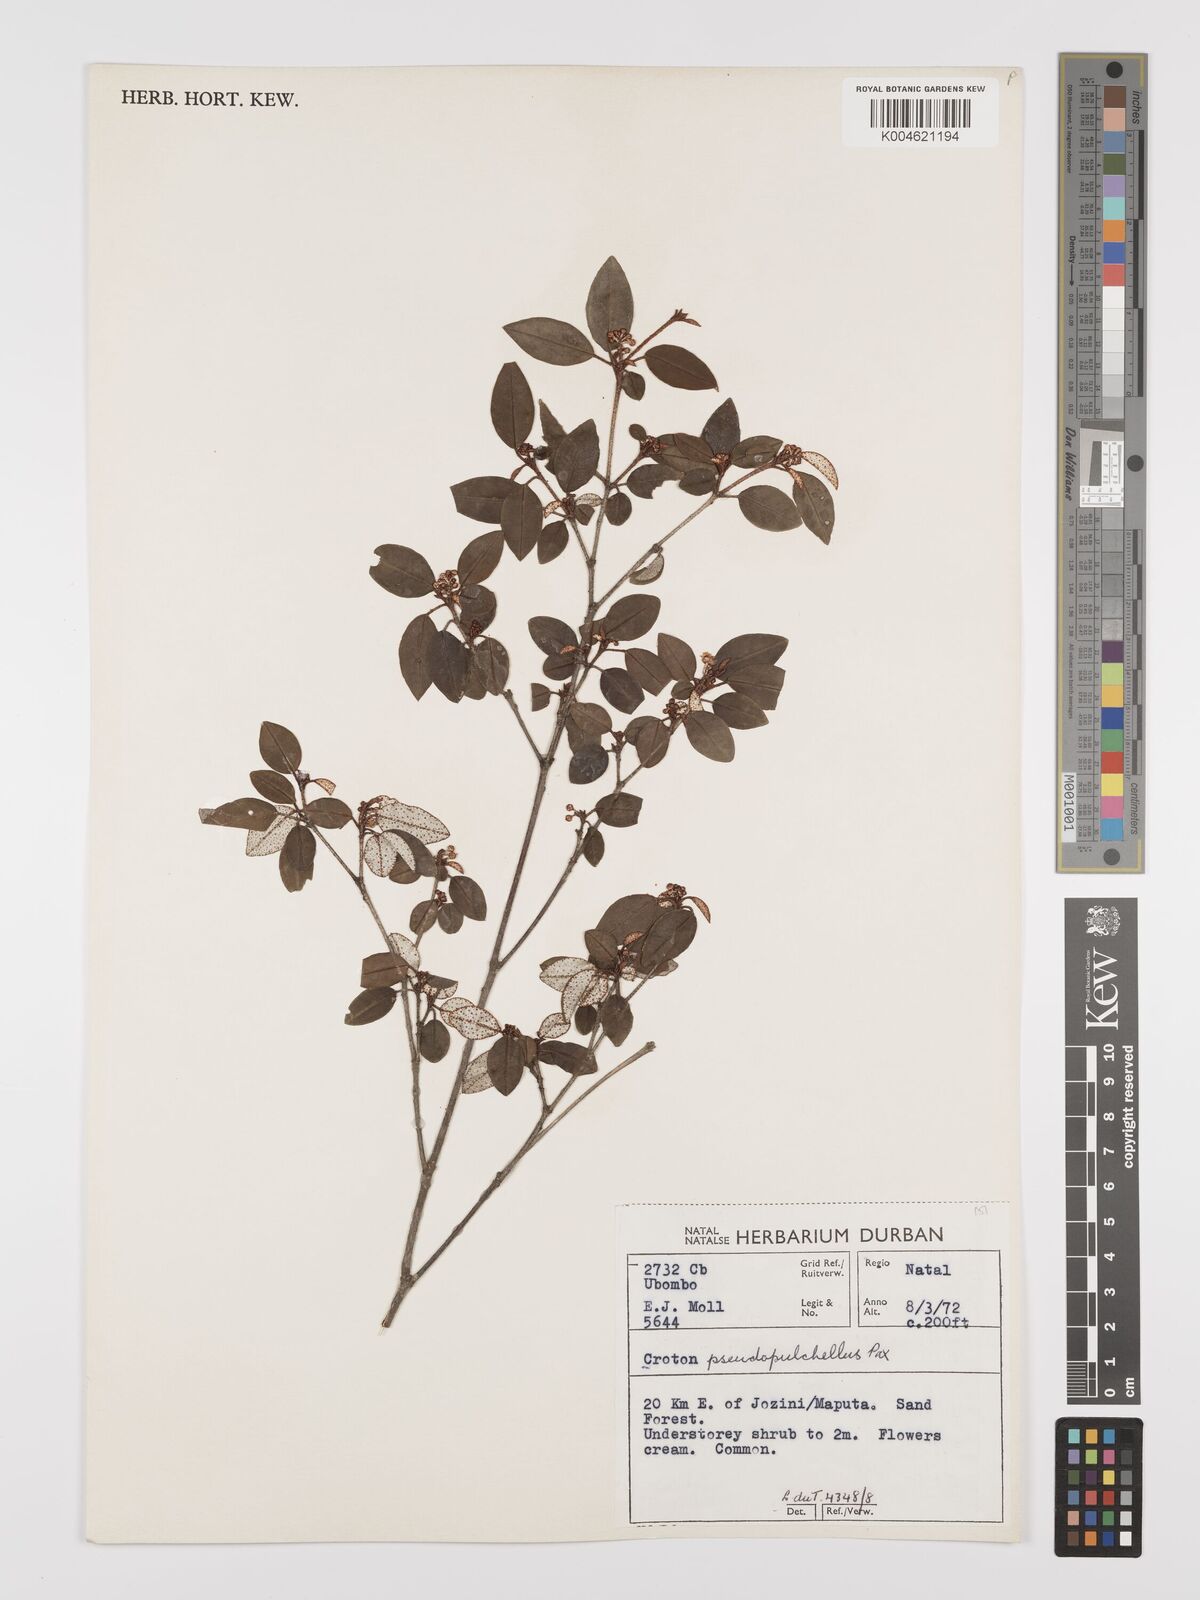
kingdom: Plantae
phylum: Tracheophyta
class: Magnoliopsida
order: Malpighiales
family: Euphorbiaceae
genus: Croton
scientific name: Croton pseudopulchellus
